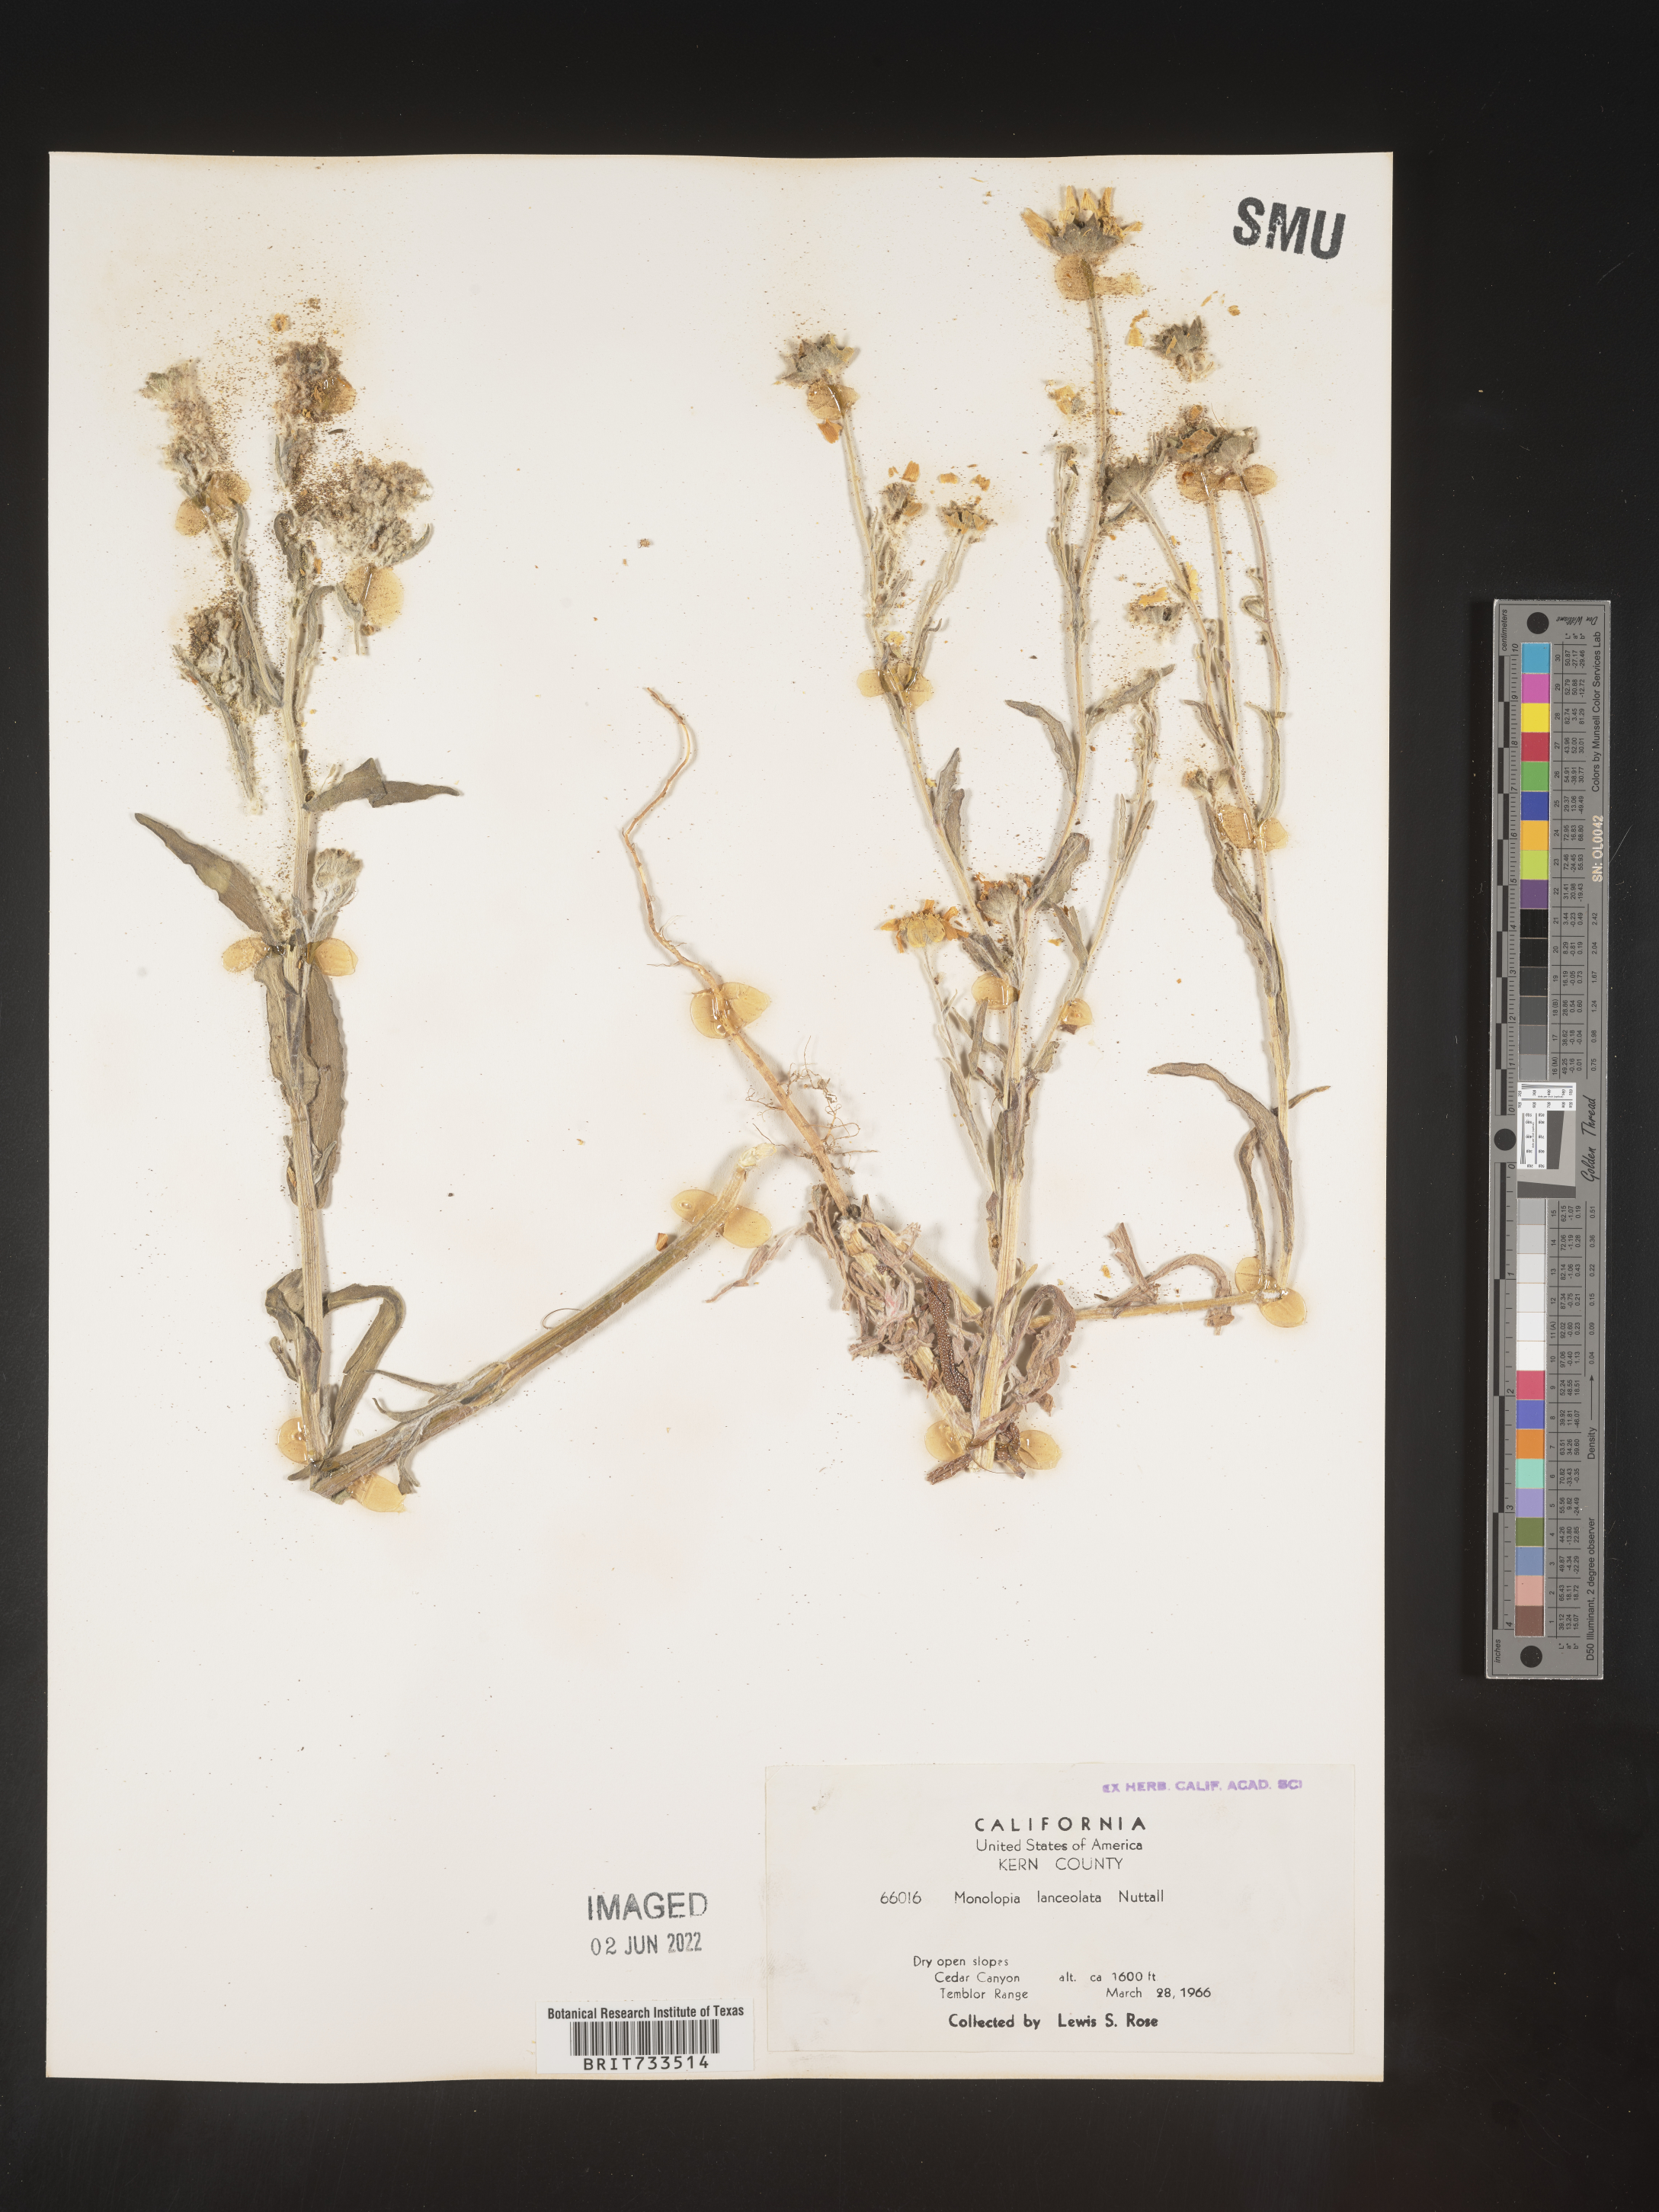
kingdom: Plantae
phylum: Tracheophyta
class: Magnoliopsida
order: Asterales
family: Asteraceae
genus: Monolopia
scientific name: Monolopia lanceolata
